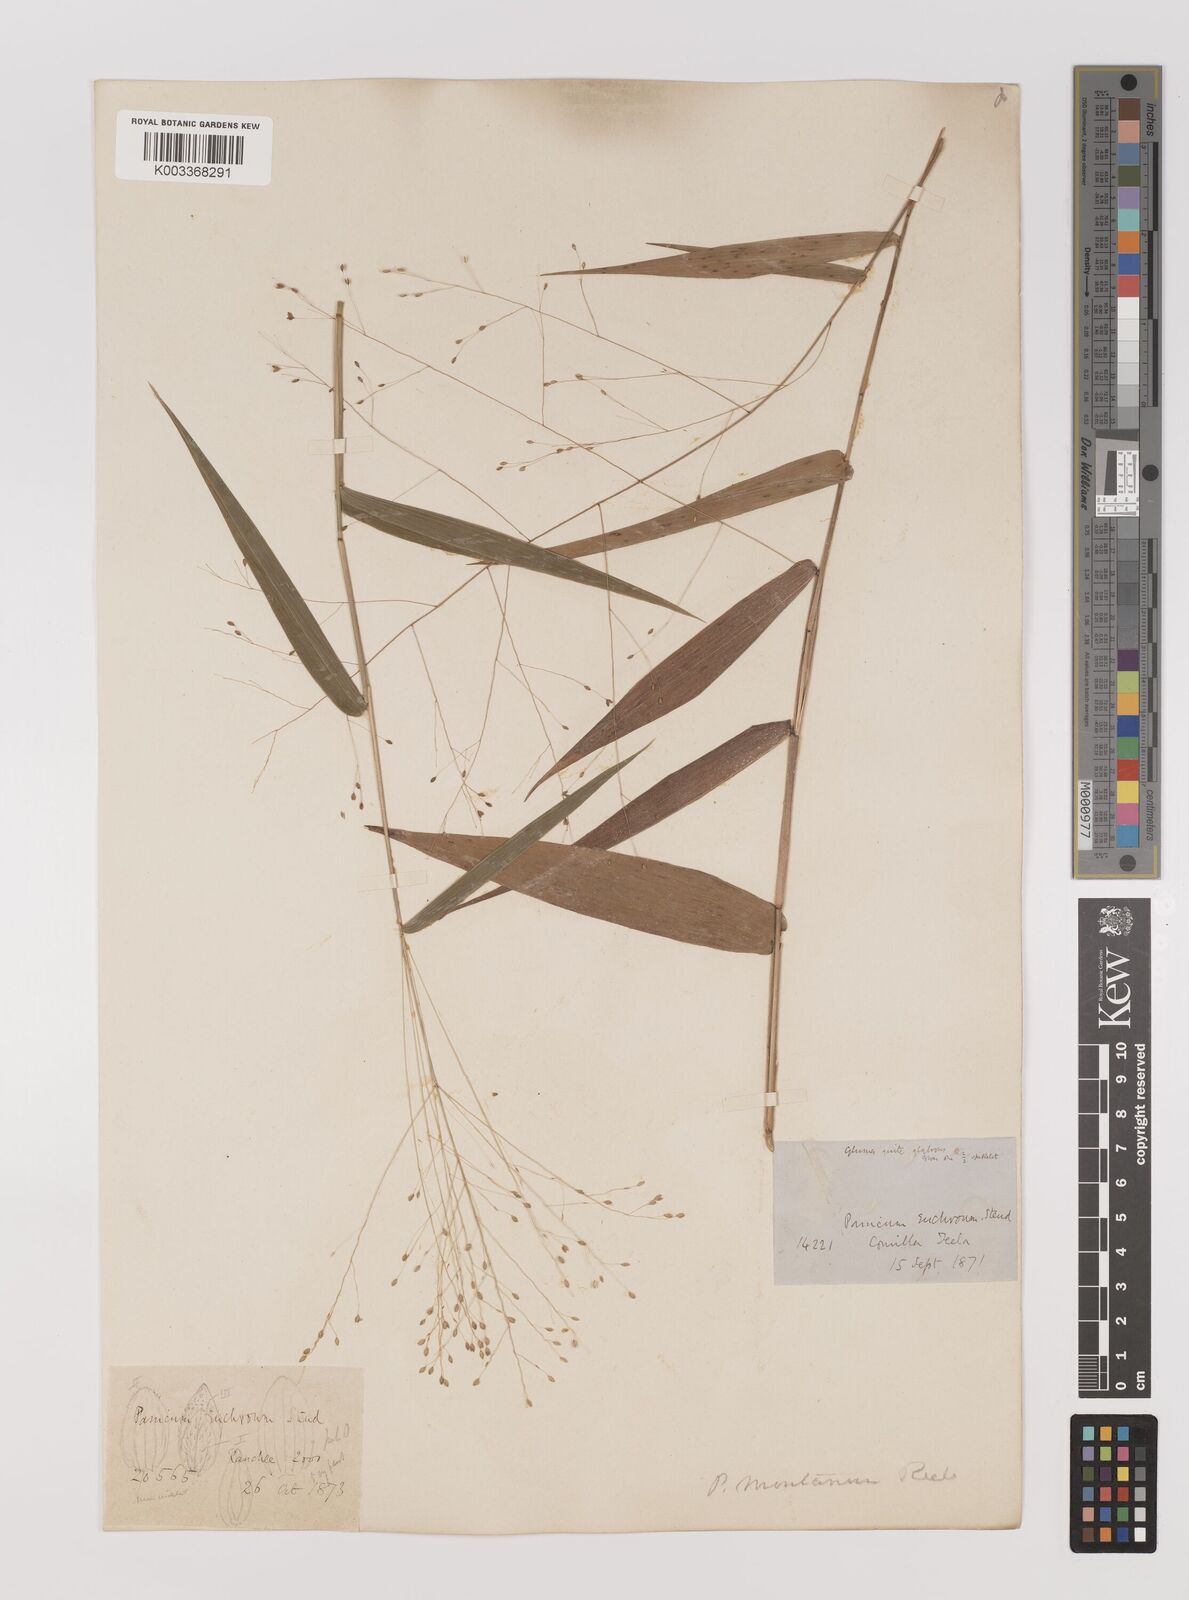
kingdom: Plantae
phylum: Tracheophyta
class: Liliopsida
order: Poales
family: Poaceae
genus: Panicum
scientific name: Panicum notatum
